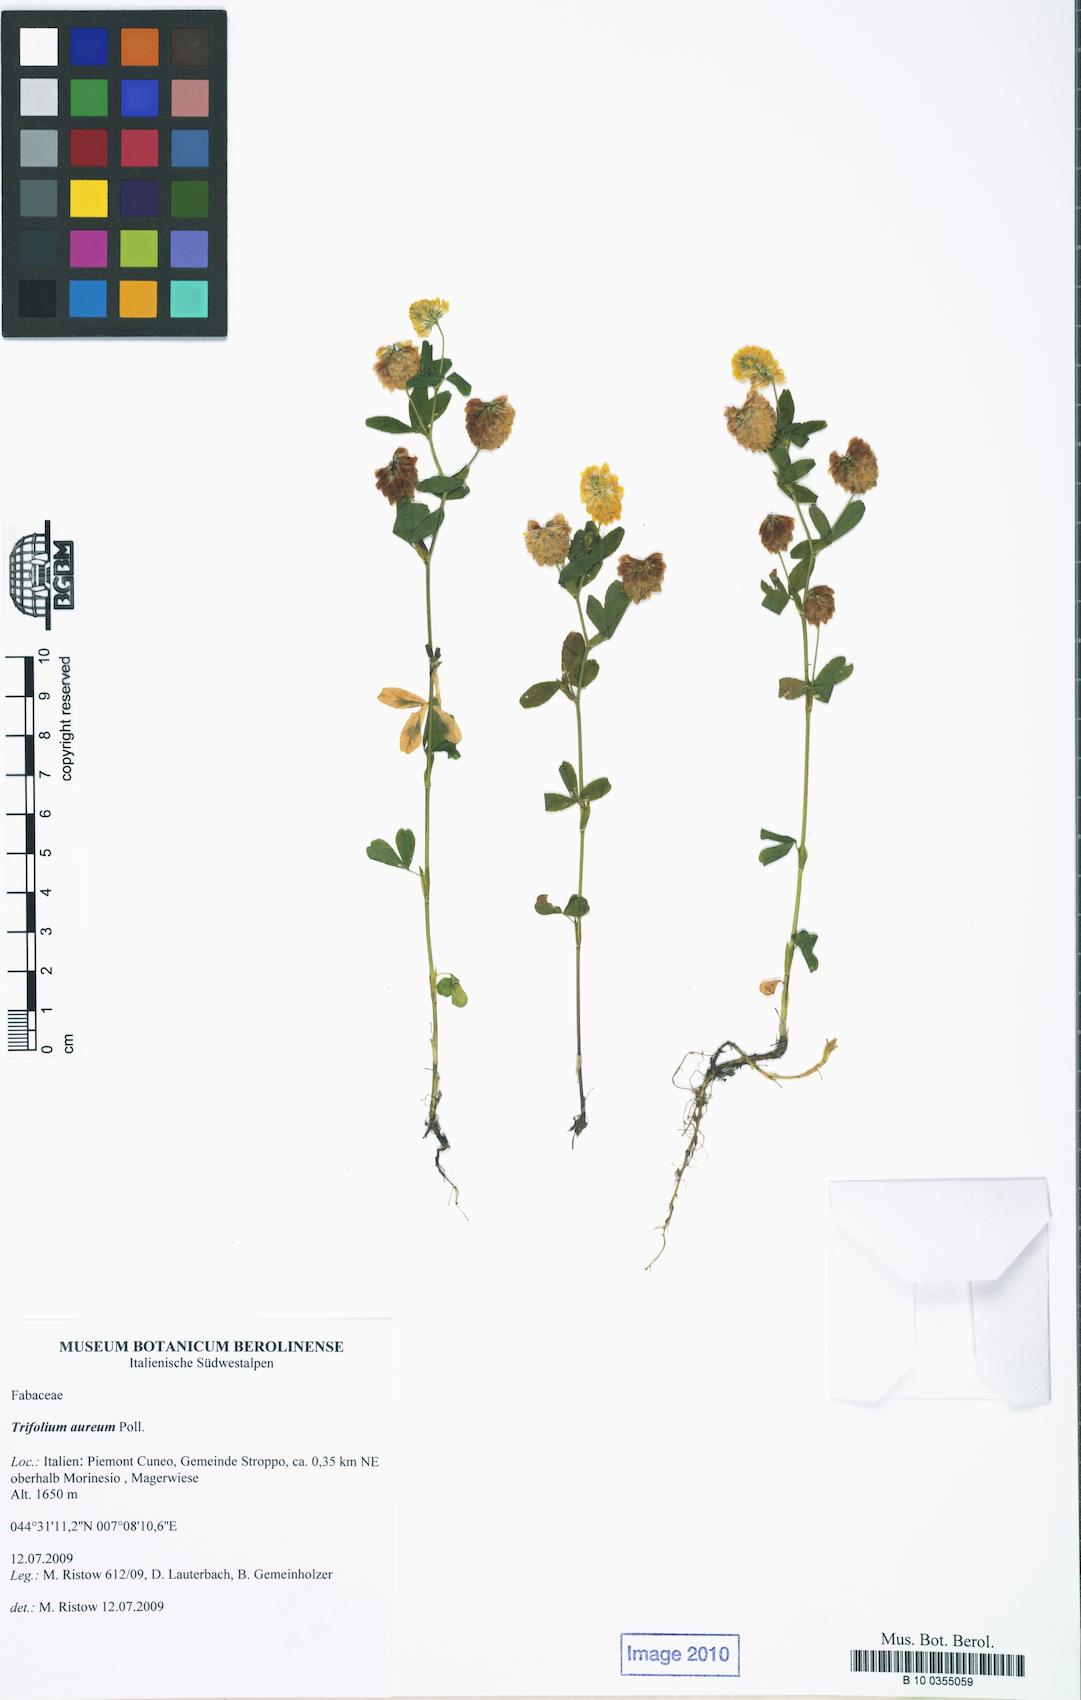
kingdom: Plantae
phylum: Tracheophyta
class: Magnoliopsida
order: Fabales
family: Fabaceae
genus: Trifolium
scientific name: Trifolium aureum
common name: Golden clover
